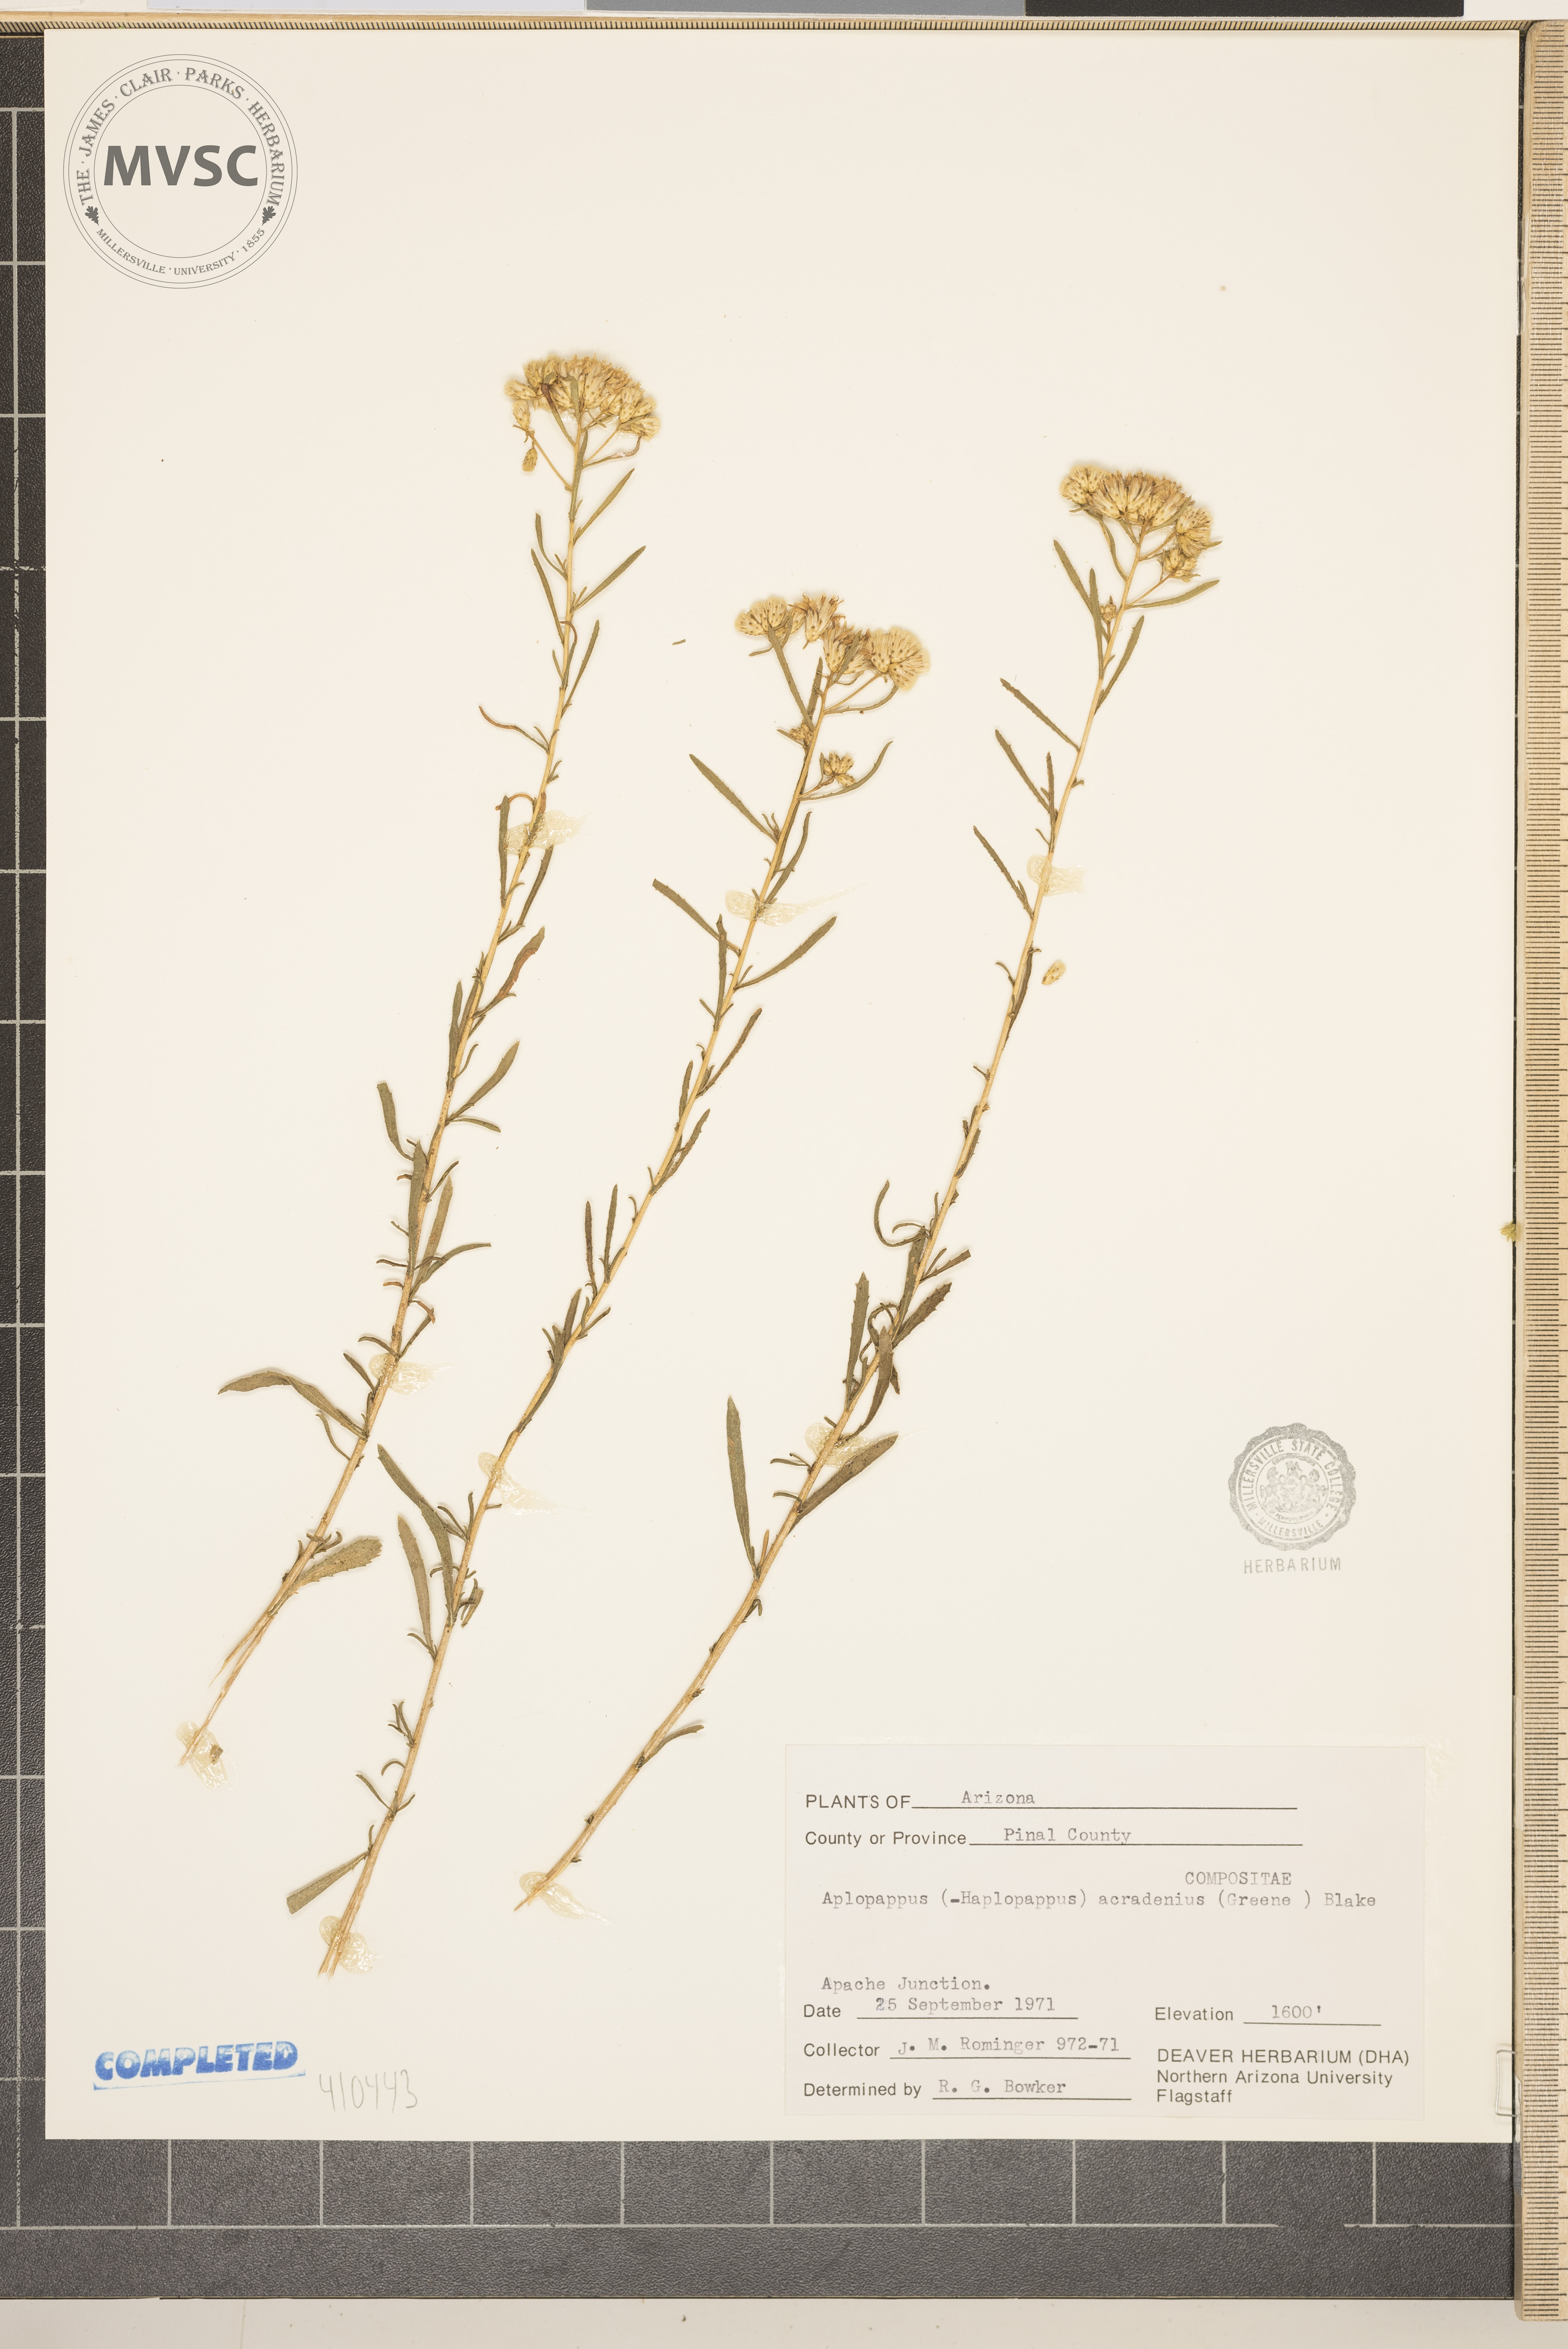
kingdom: Plantae
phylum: Tracheophyta
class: Magnoliopsida
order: Asterales
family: Asteraceae
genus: Isocoma
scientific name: Isocoma acradenia
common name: Alkali jimmyweed
